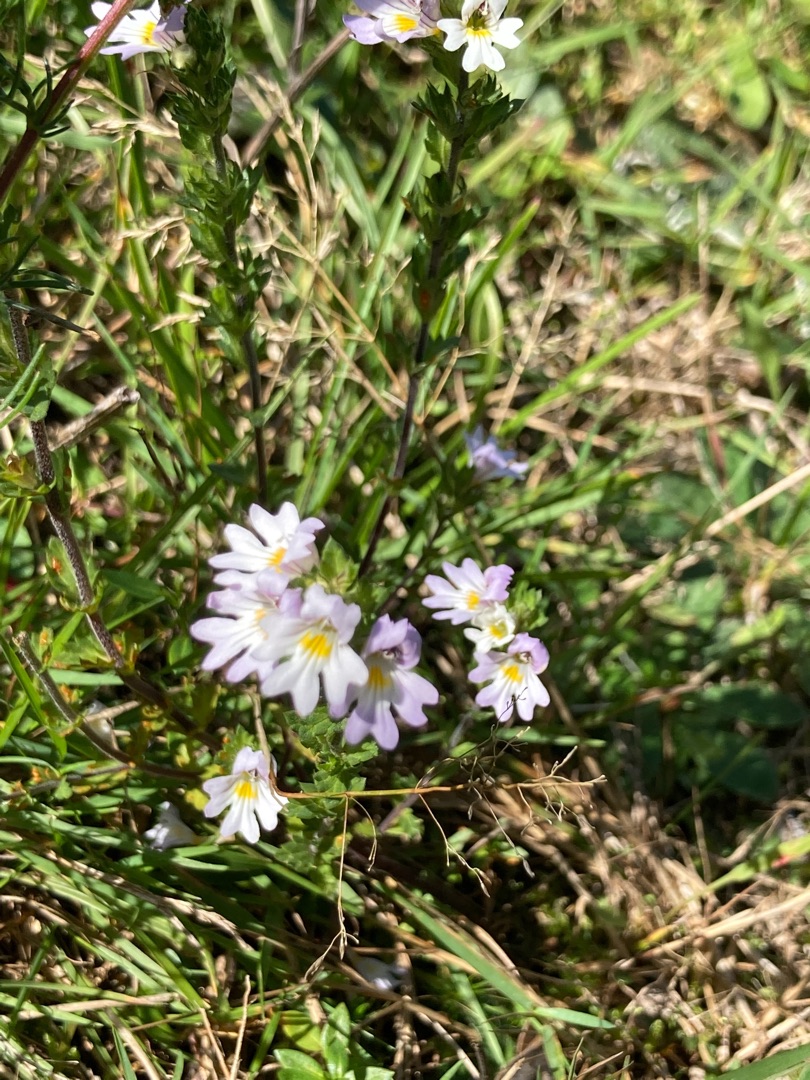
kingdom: Plantae
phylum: Tracheophyta
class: Magnoliopsida
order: Lamiales
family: Orobanchaceae
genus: Euphrasia
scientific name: Euphrasia stricta
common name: Spids øjentrøst
